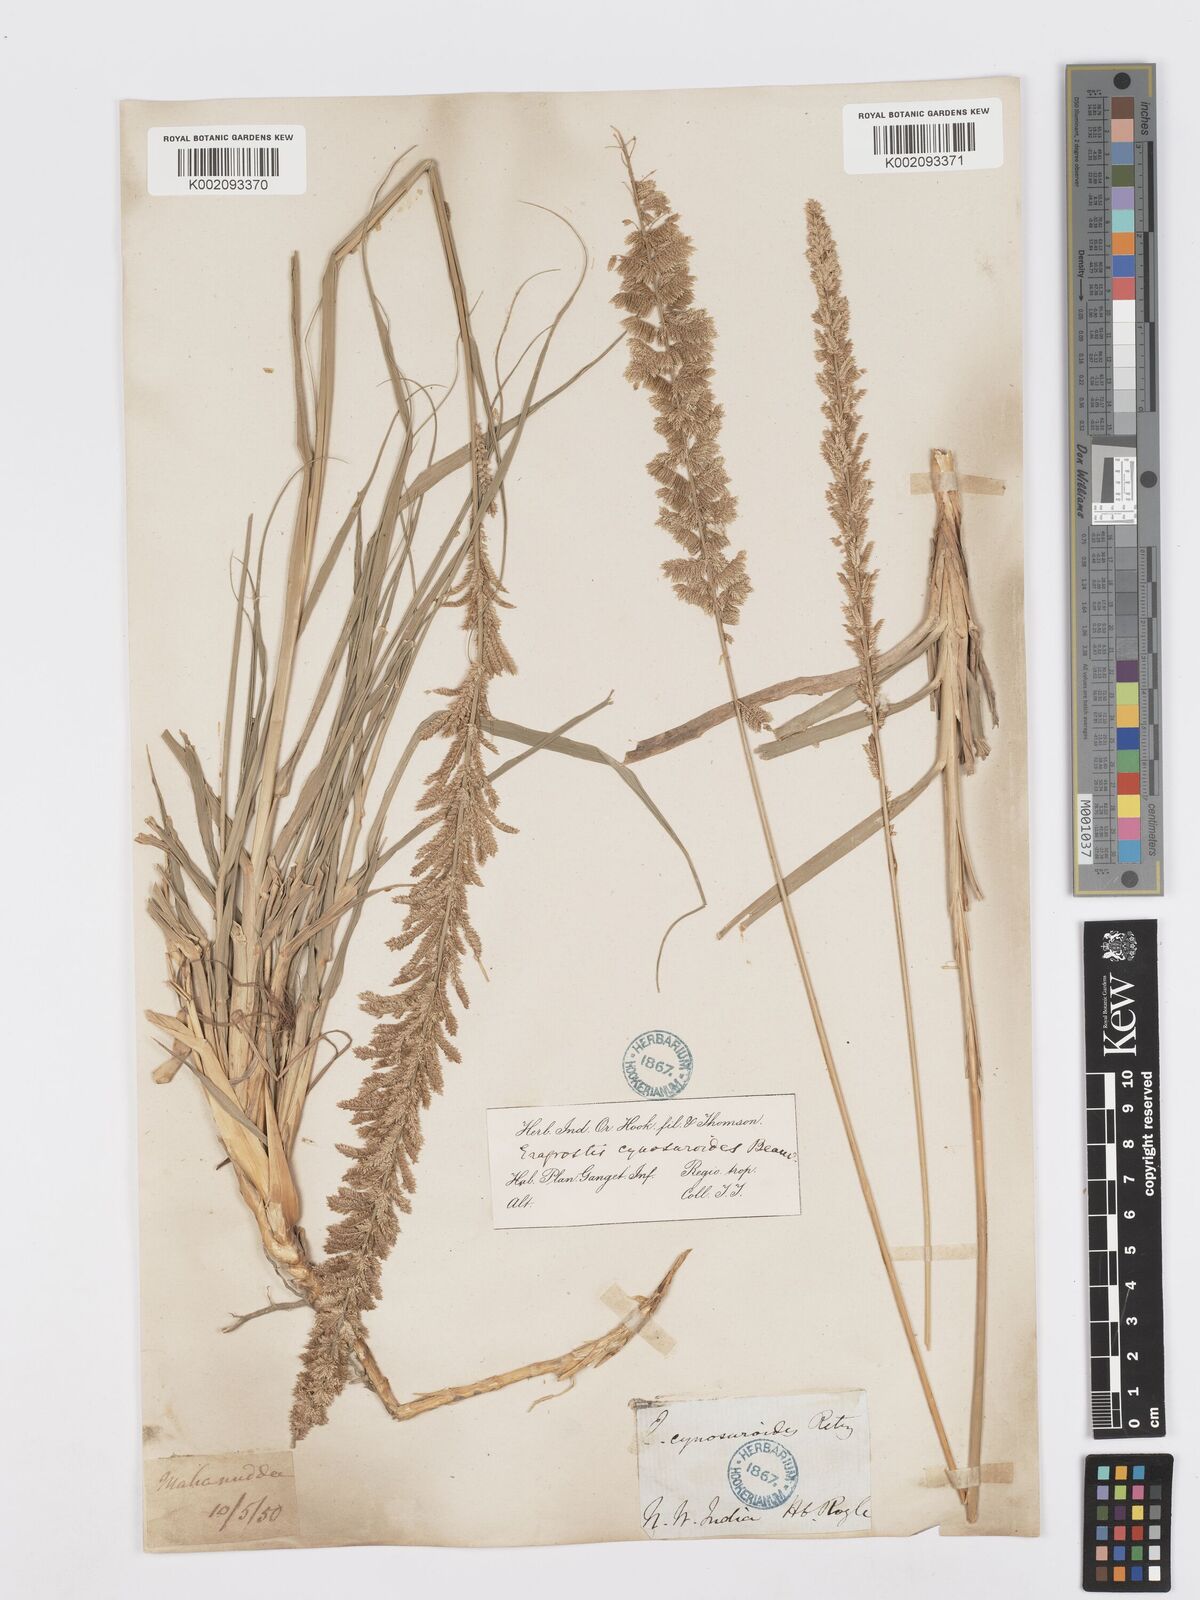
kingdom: Plantae
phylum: Tracheophyta
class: Liliopsida
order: Poales
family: Poaceae
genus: Desmostachya
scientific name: Desmostachya bipinnata
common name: Crowfoot grass
